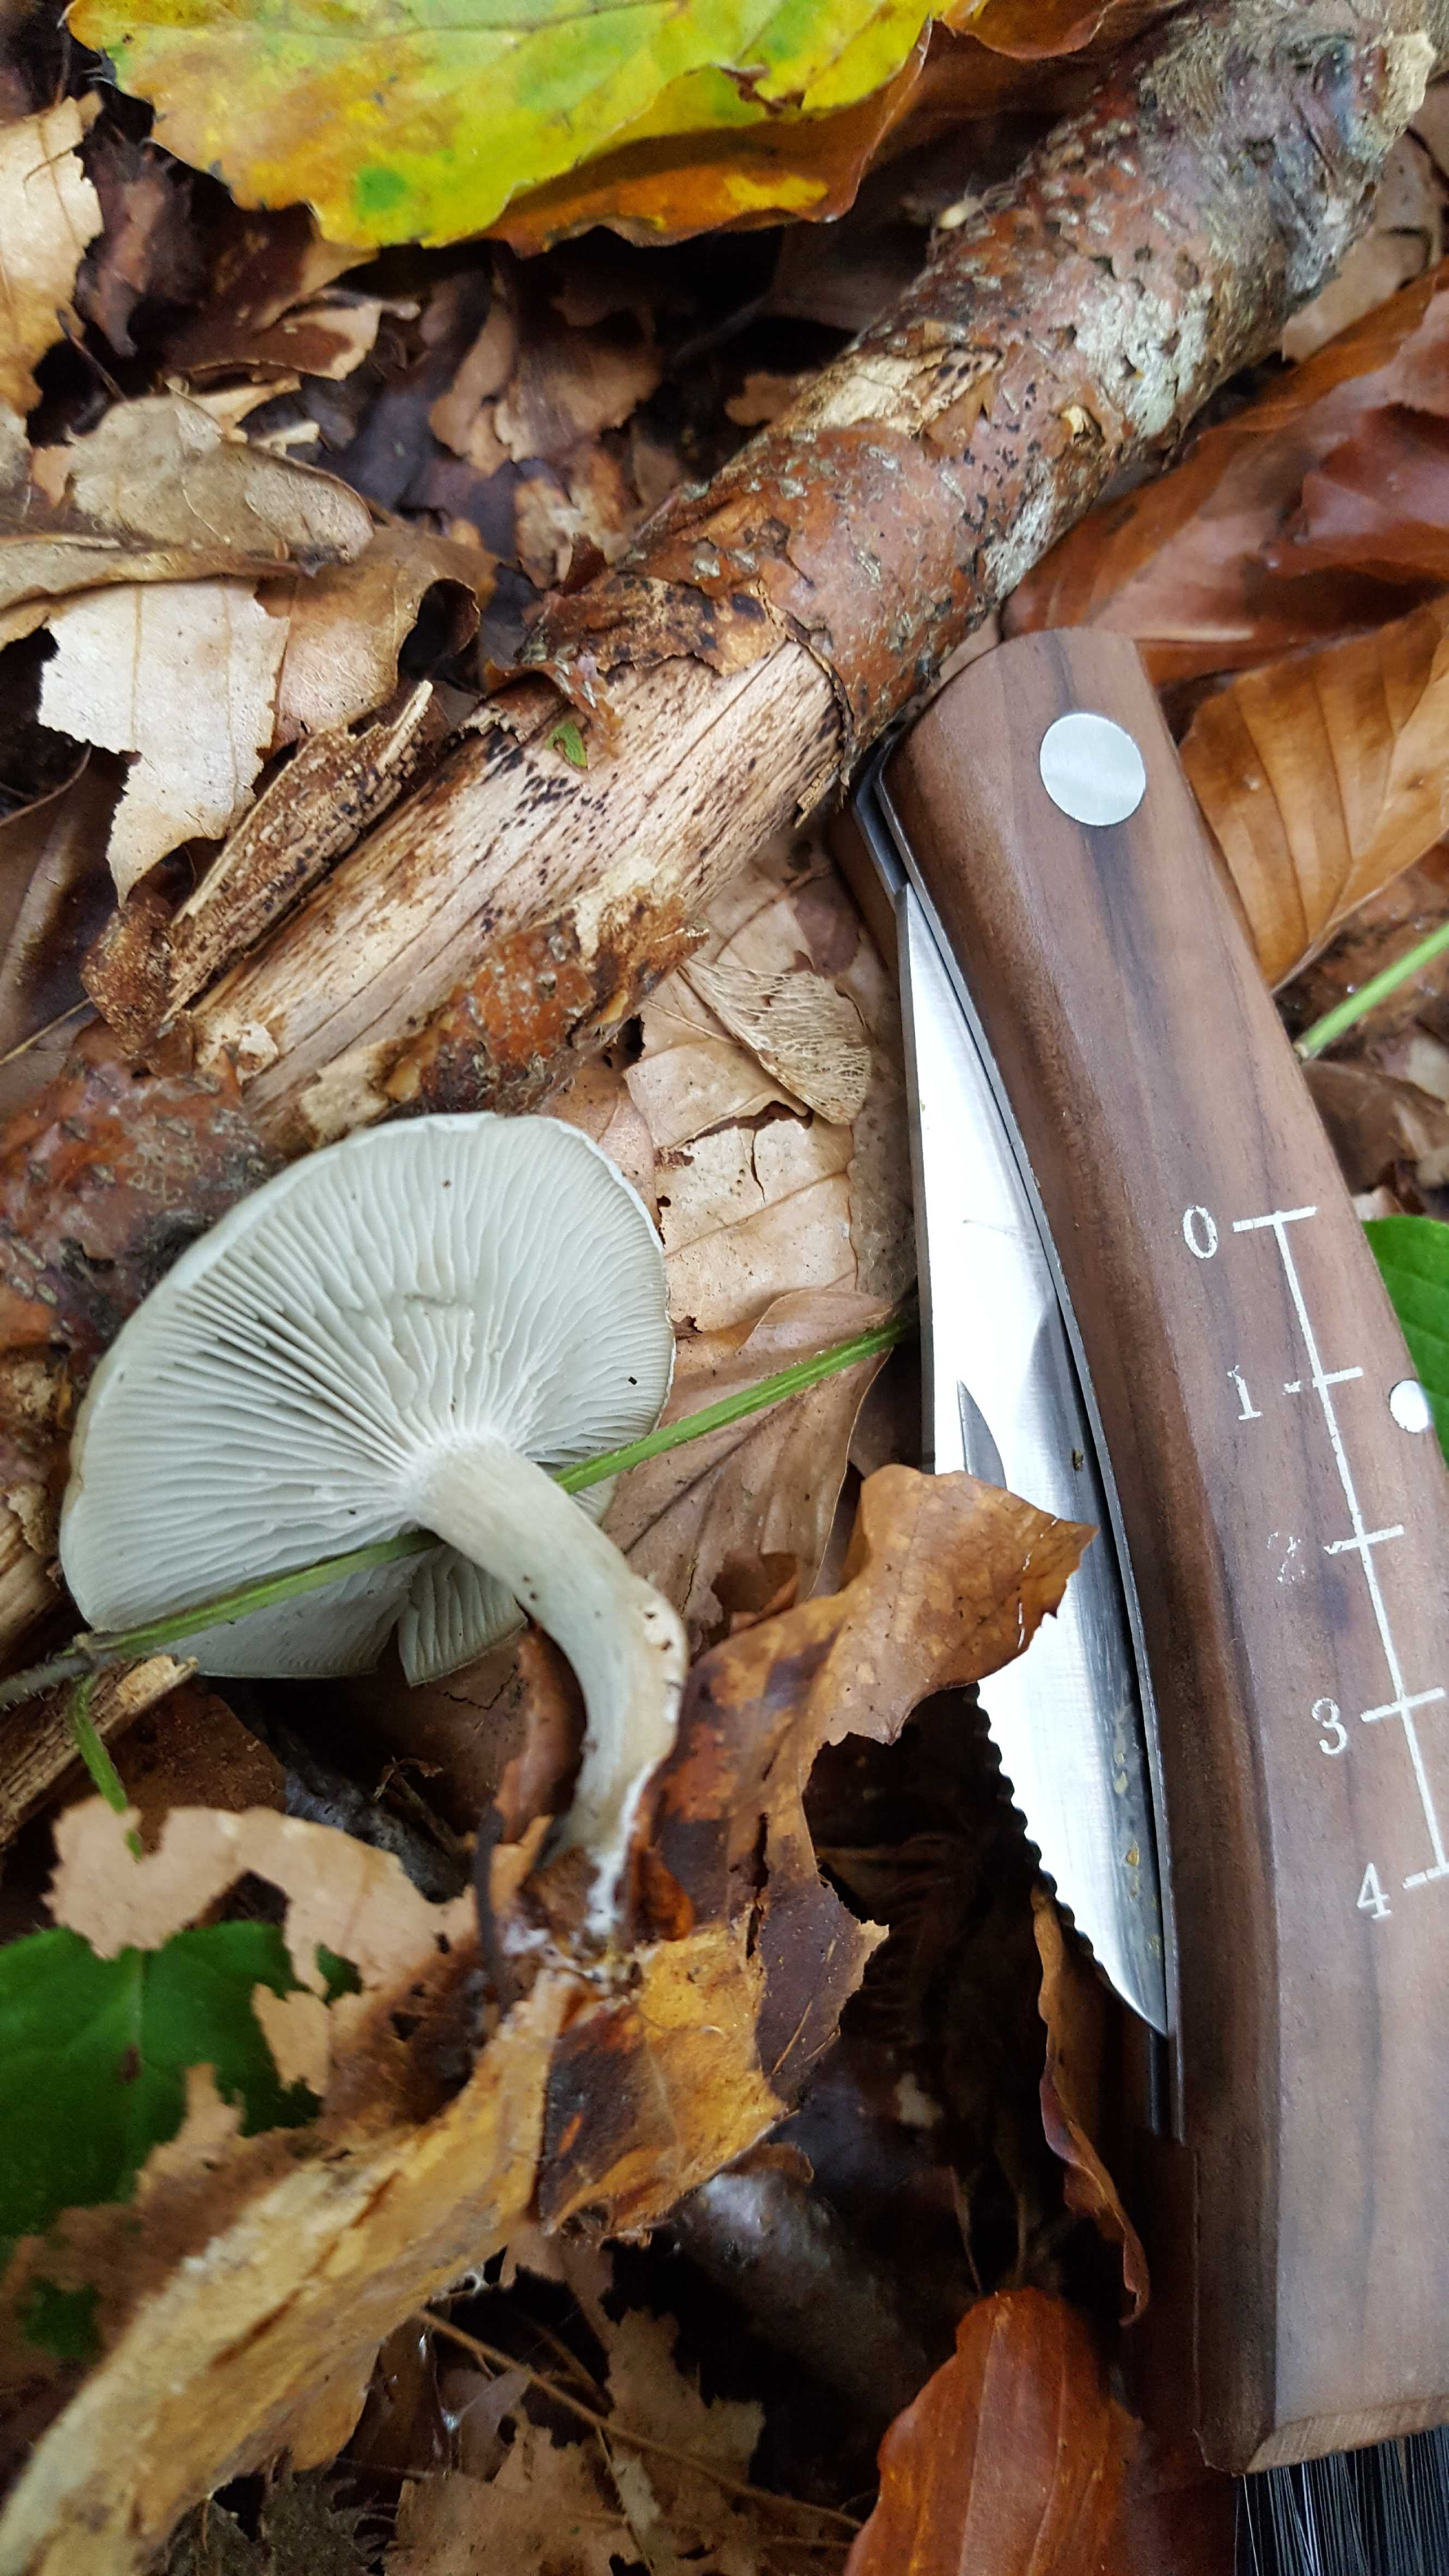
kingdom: Fungi
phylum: Basidiomycota
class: Agaricomycetes
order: Agaricales
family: Tricholomataceae
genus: Clitocybe
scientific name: Clitocybe odora
